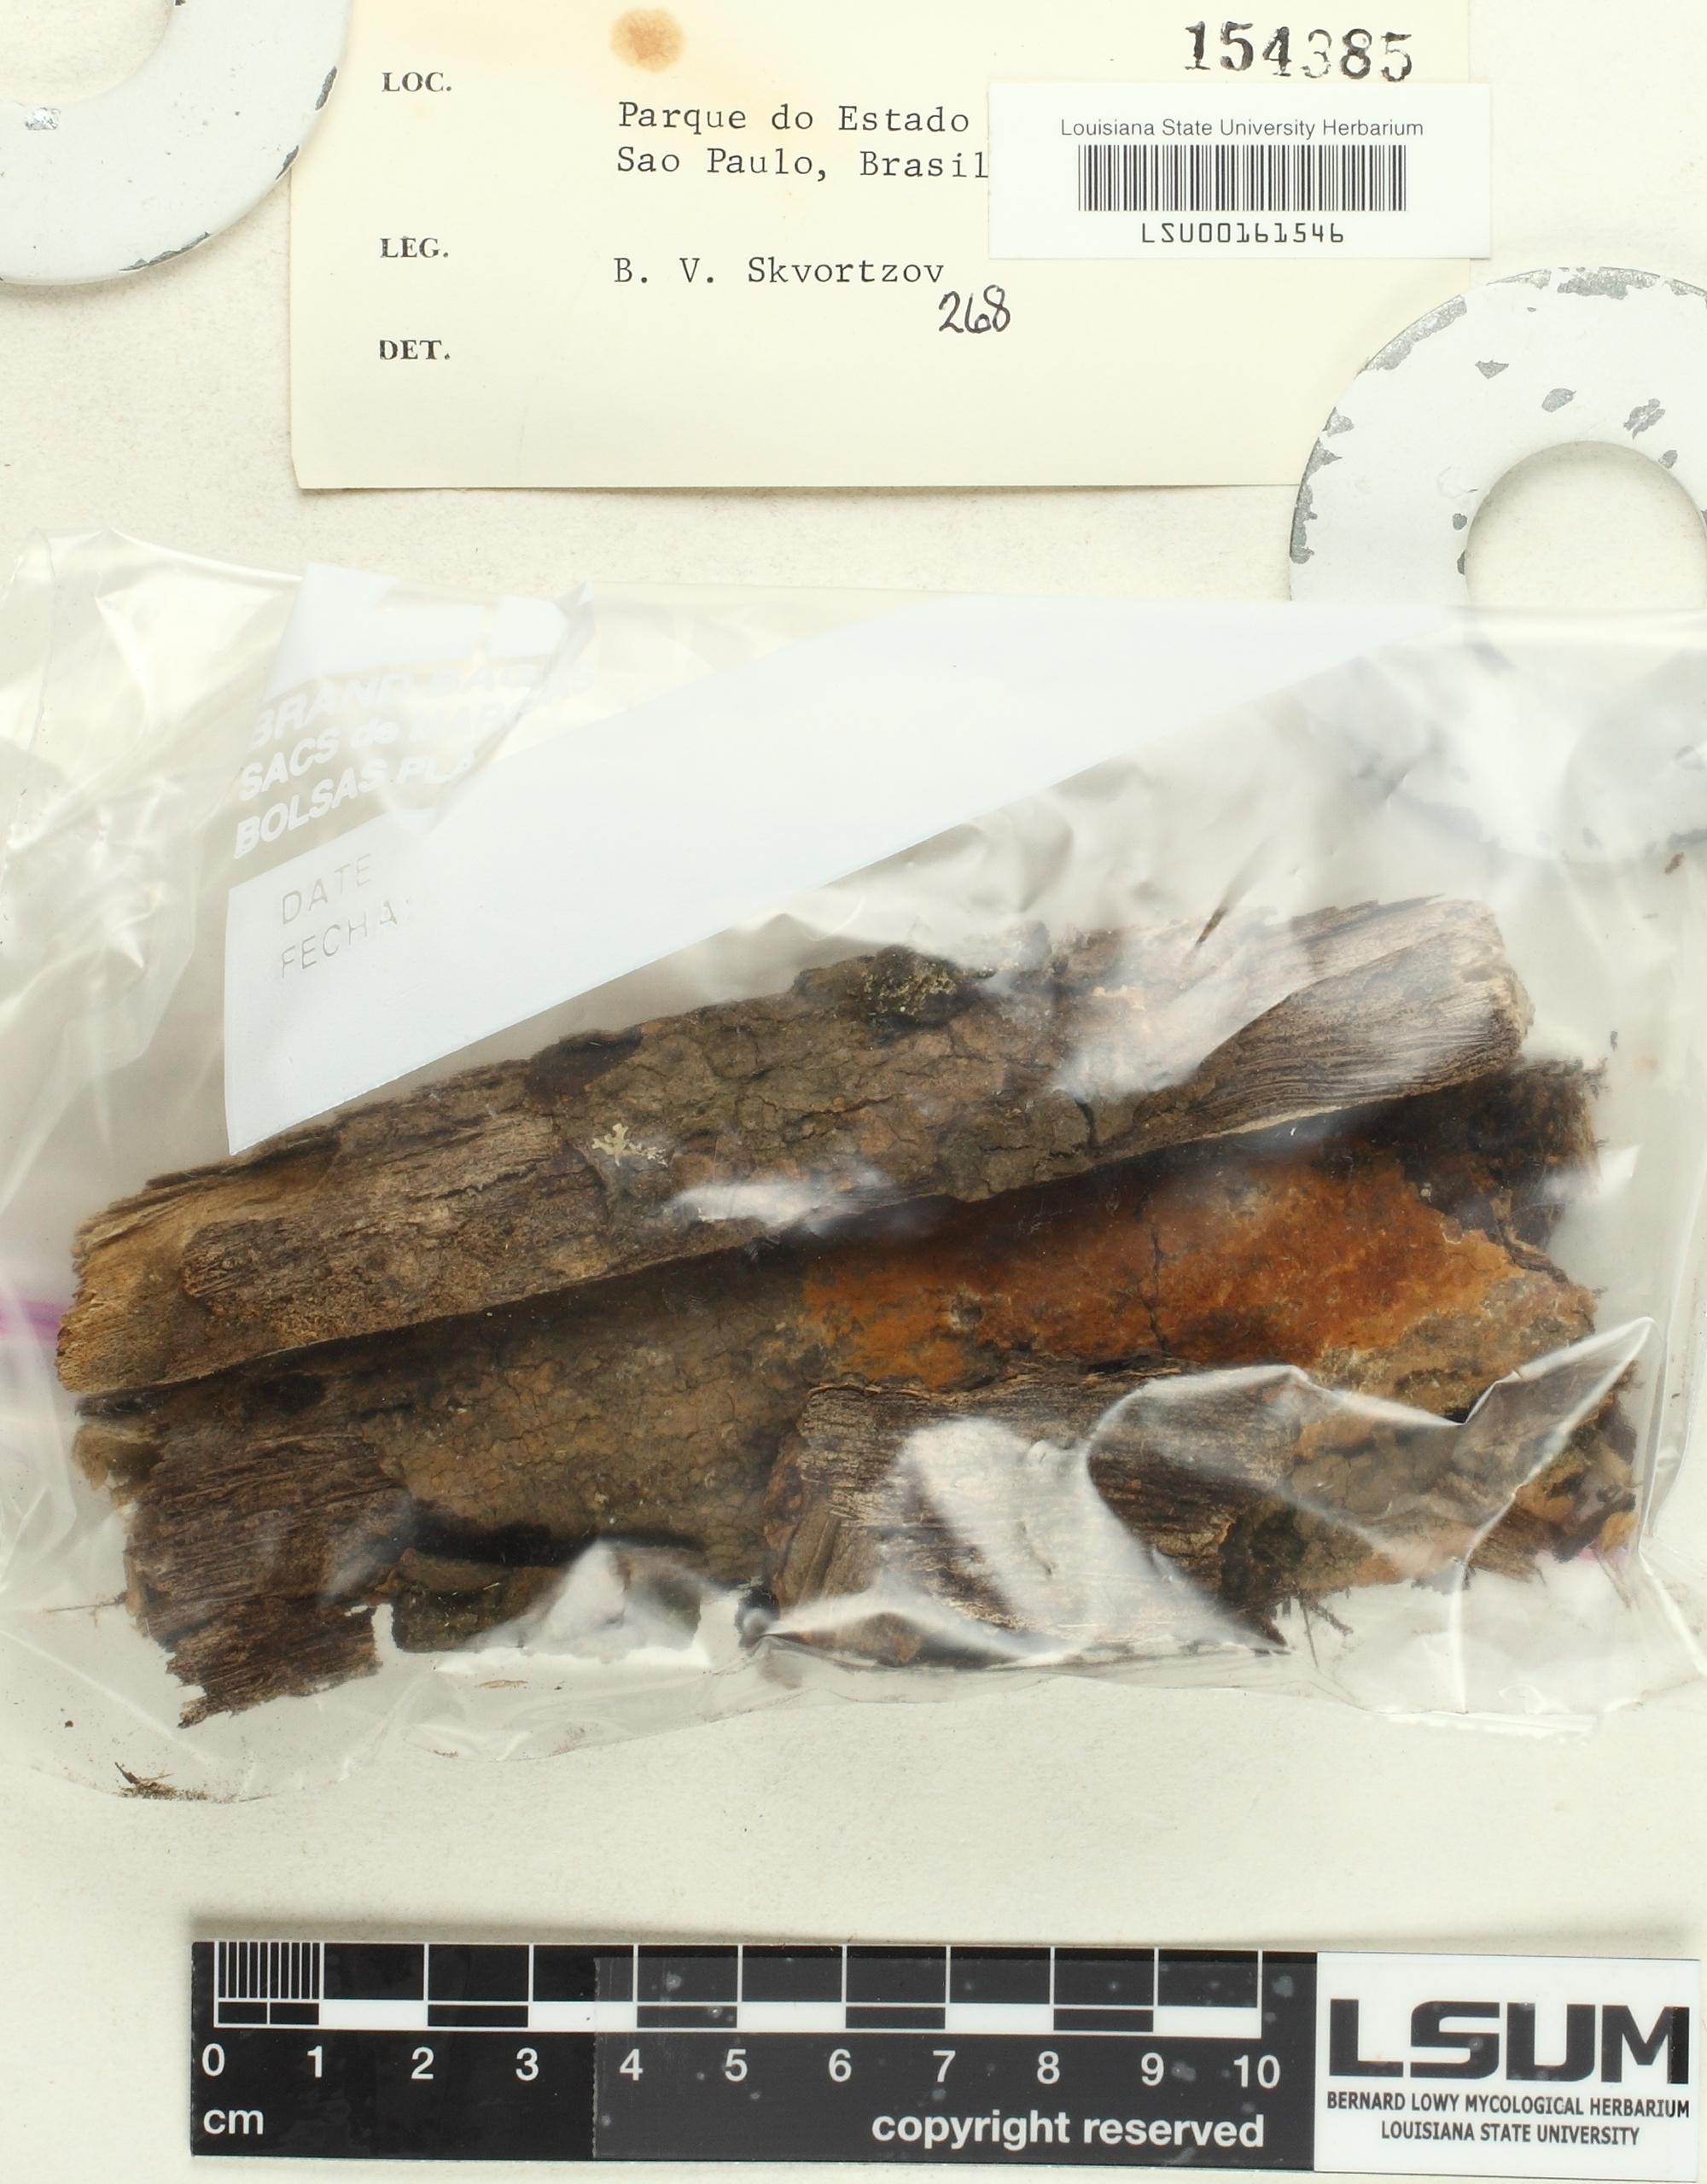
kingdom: Fungi
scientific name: Fungi
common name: Fungi
